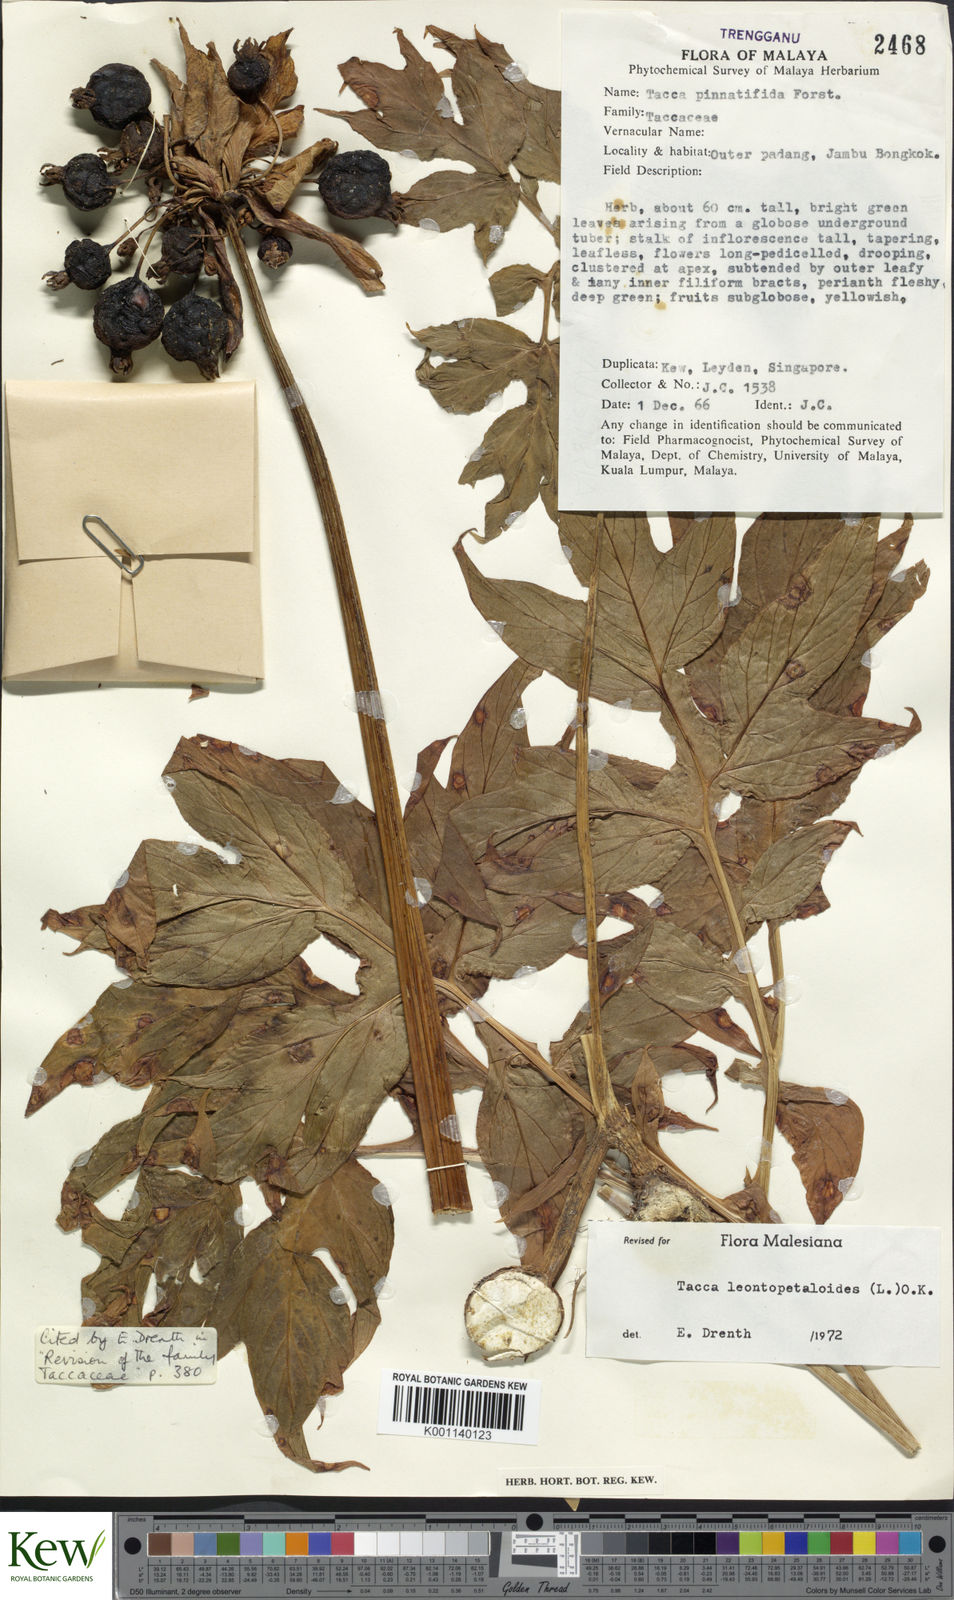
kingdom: Plantae
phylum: Tracheophyta
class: Liliopsida
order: Dioscoreales
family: Dioscoreaceae
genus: Tacca
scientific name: Tacca leontopetaloides
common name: Arrowroot
